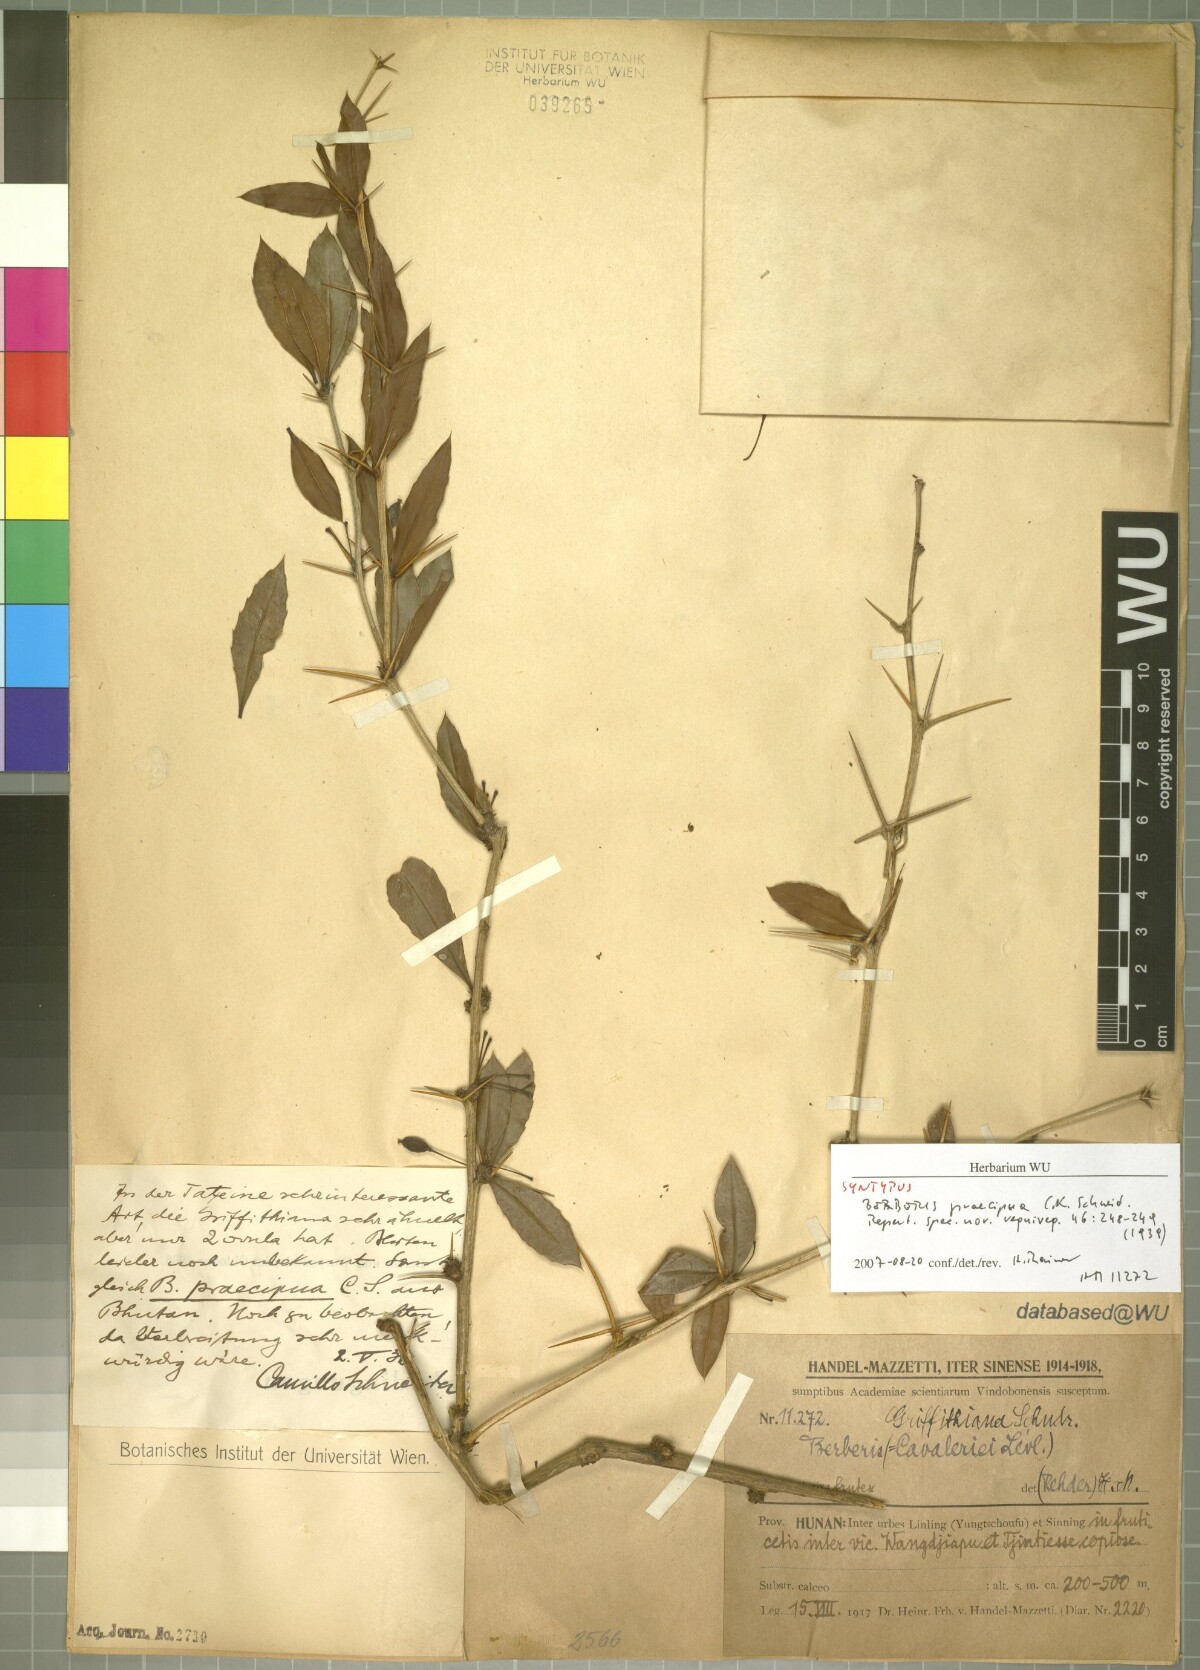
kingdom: Plantae
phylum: Tracheophyta
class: Magnoliopsida
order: Ranunculales
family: Berberidaceae
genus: Berberis
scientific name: Berberis praecipua
